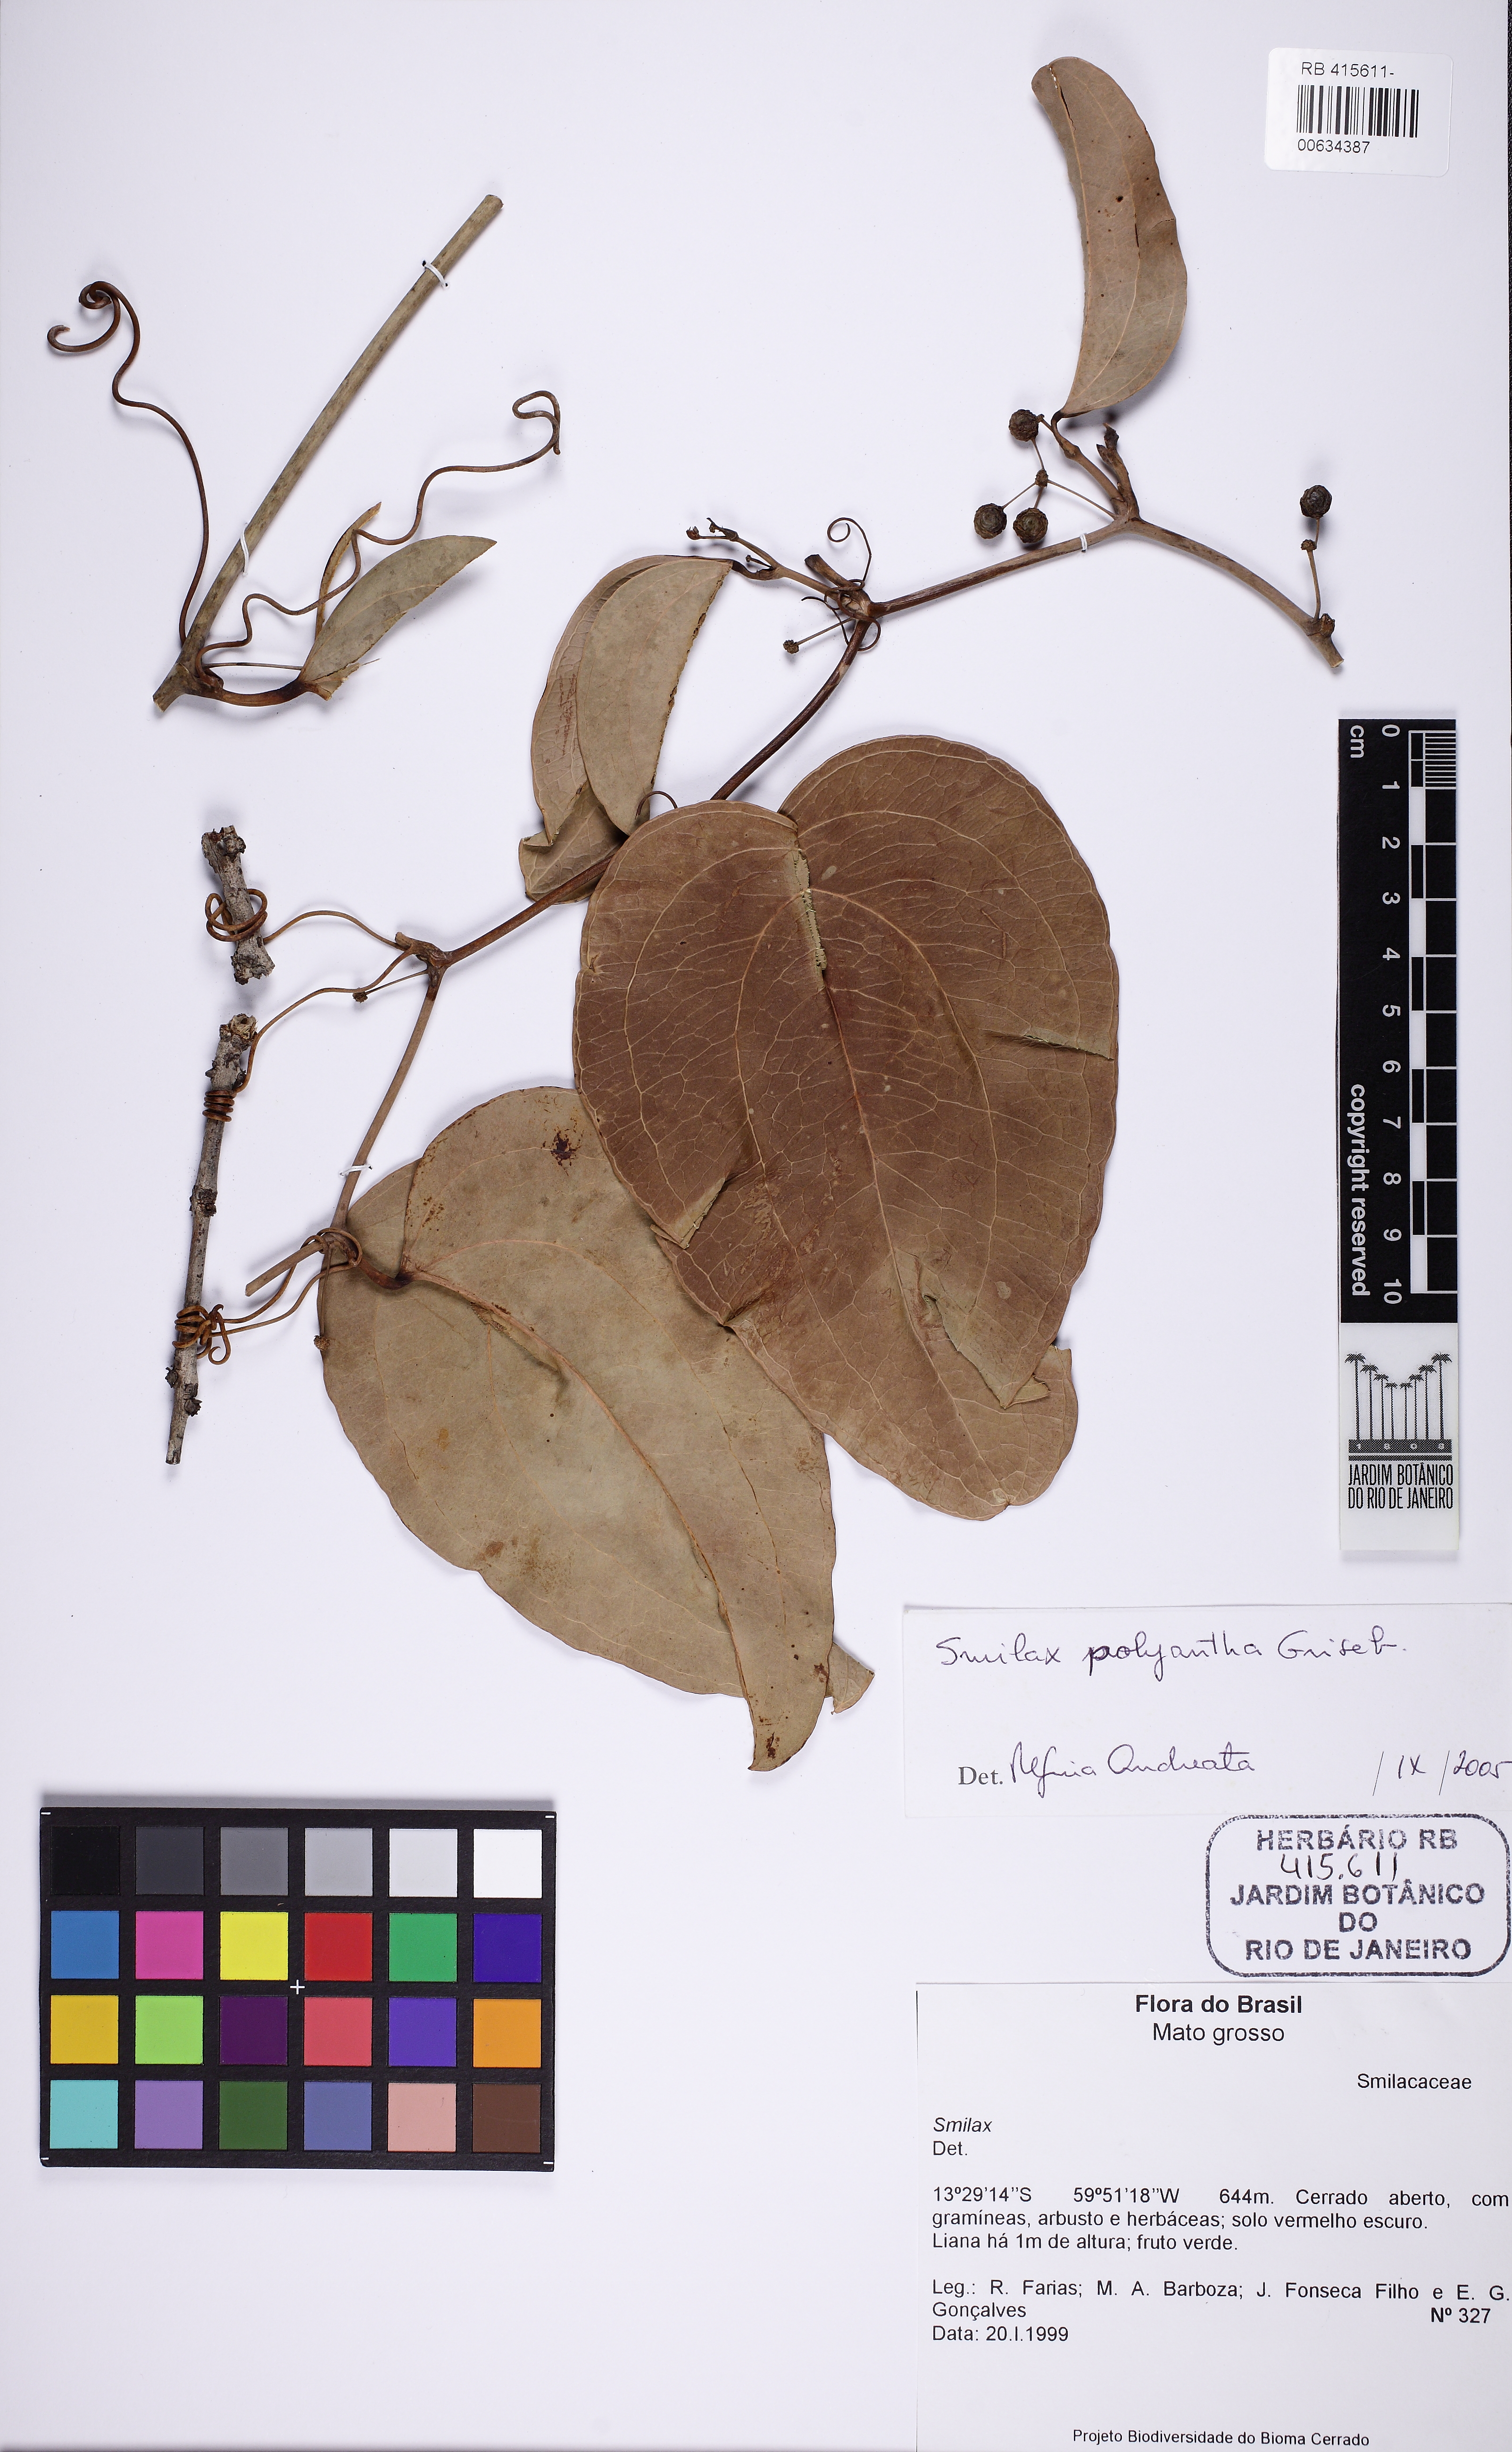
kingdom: Plantae
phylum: Tracheophyta
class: Liliopsida
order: Liliales
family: Smilacaceae
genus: Smilax
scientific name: Smilax polyantha
